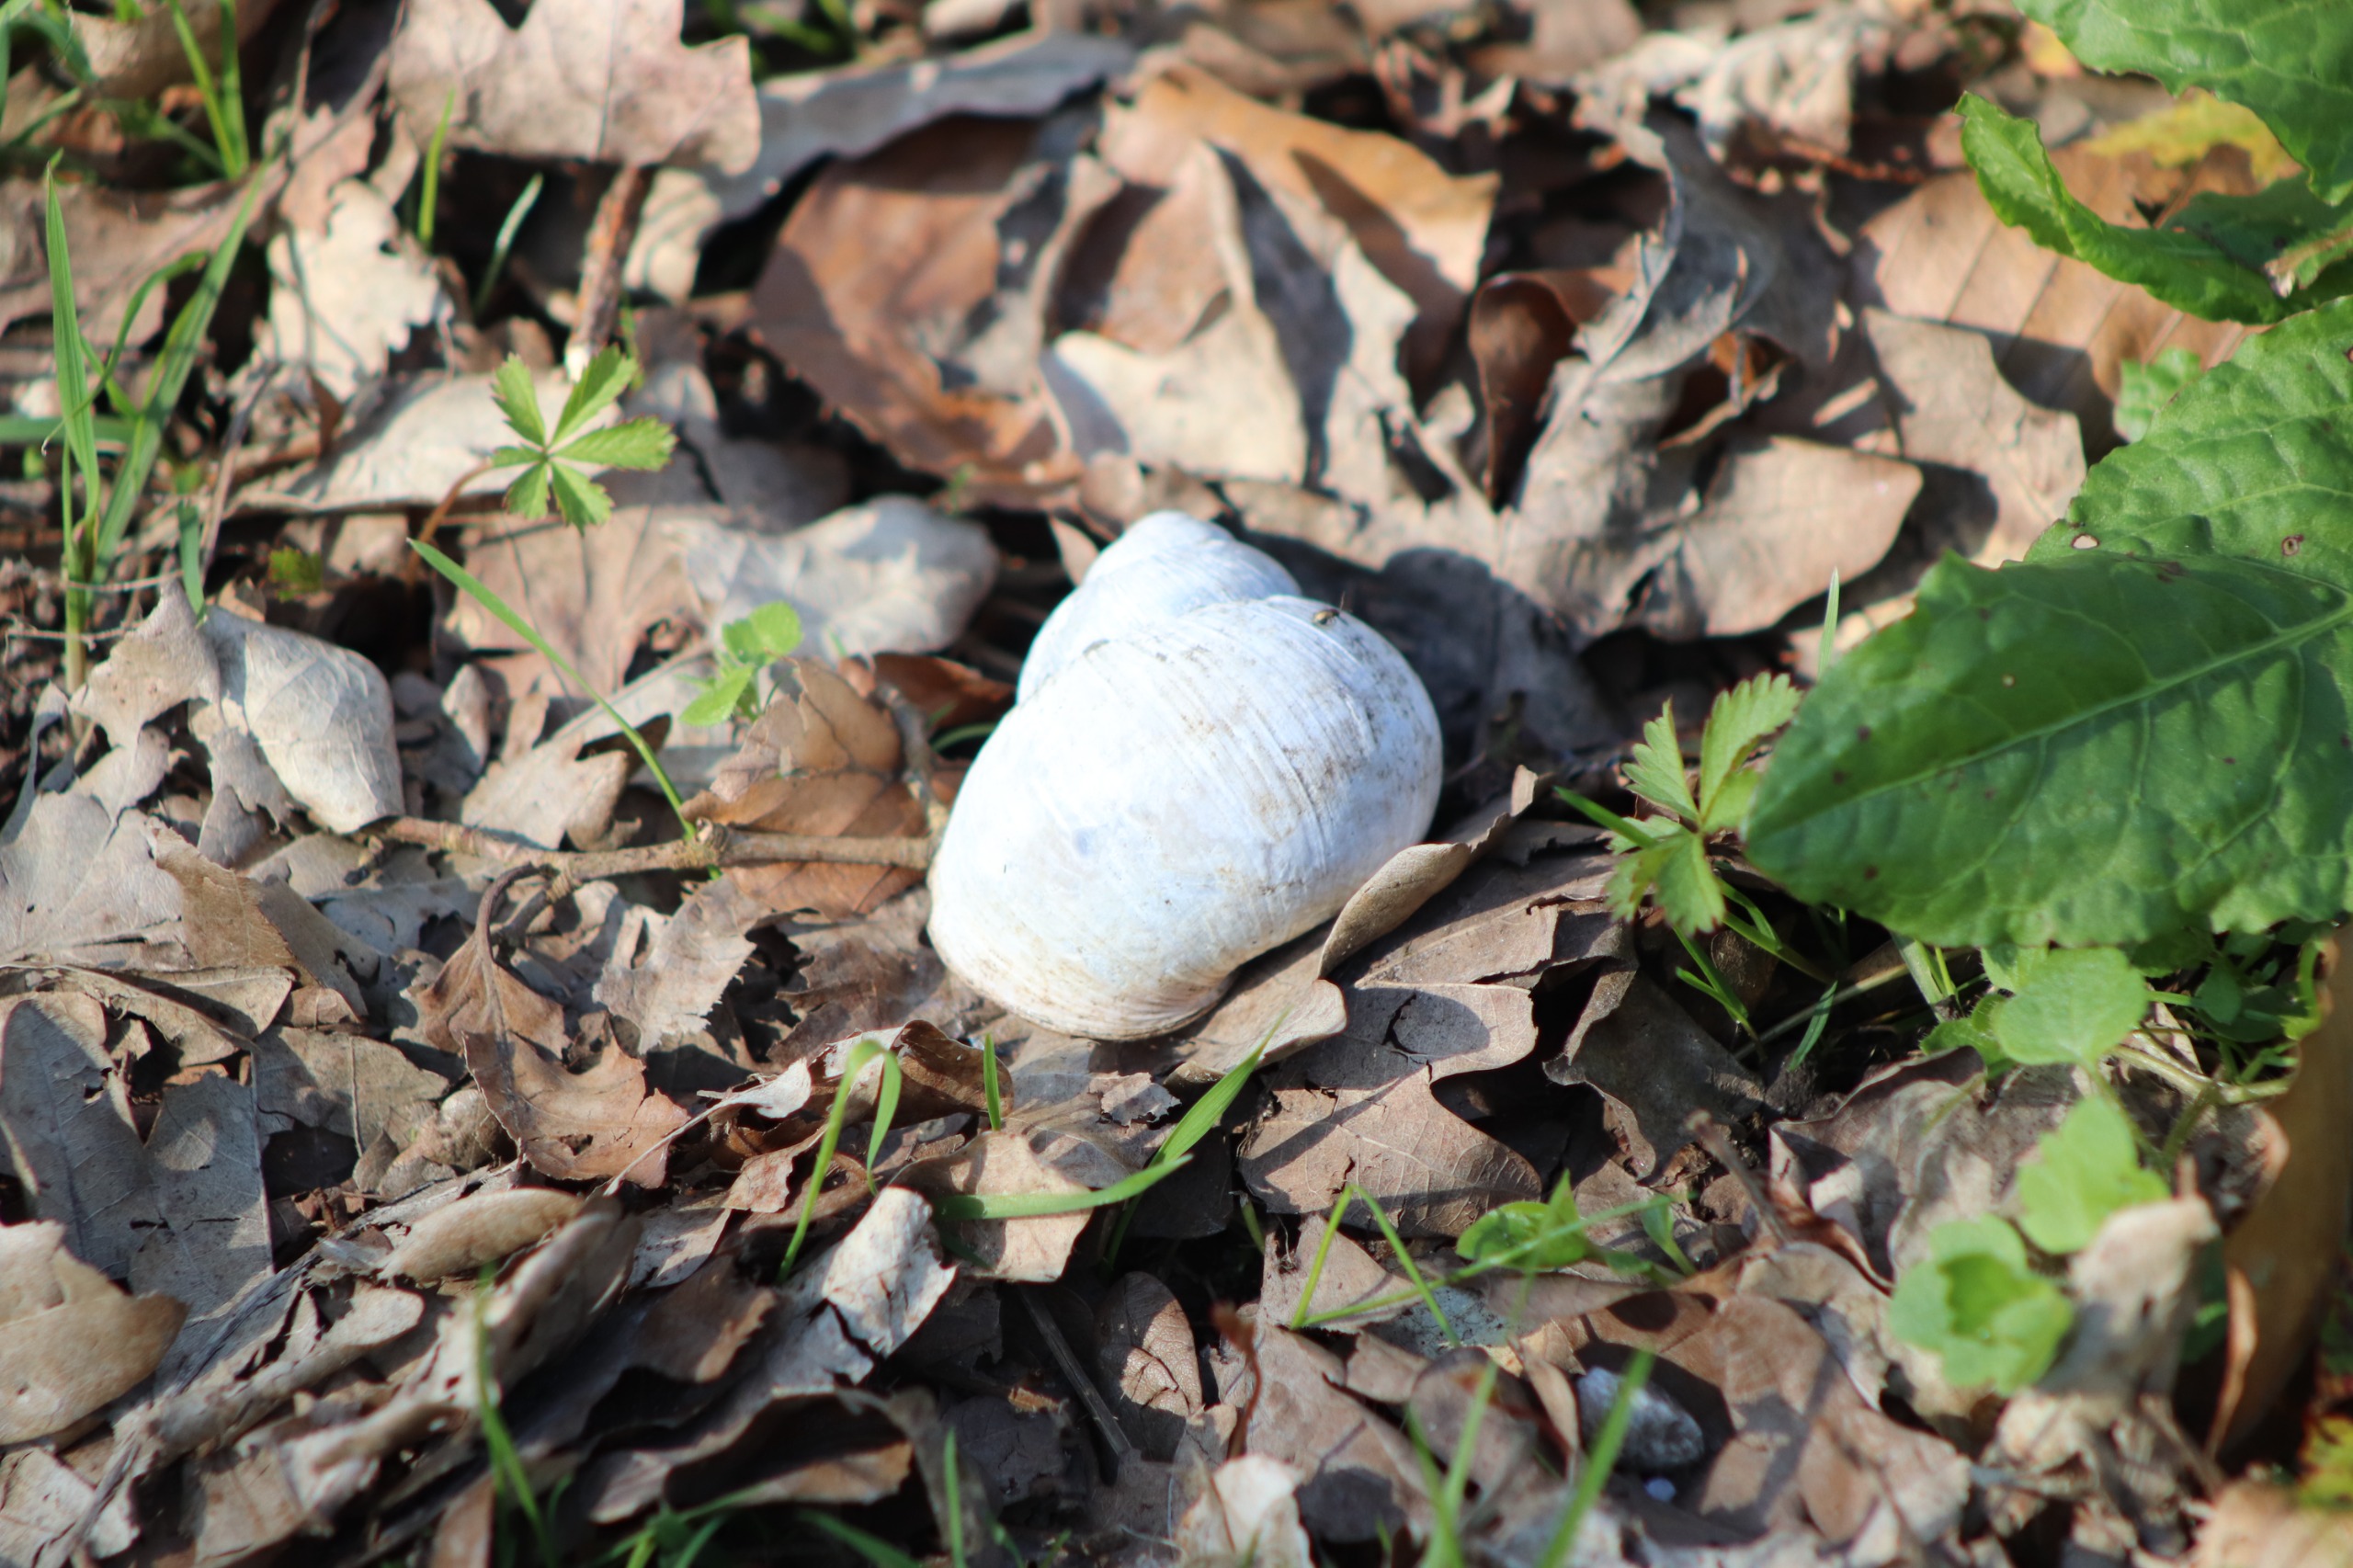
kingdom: Animalia
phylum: Mollusca
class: Gastropoda
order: Stylommatophora
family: Helicidae
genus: Helix
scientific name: Helix pomatia
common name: Vinbjergsnegl
